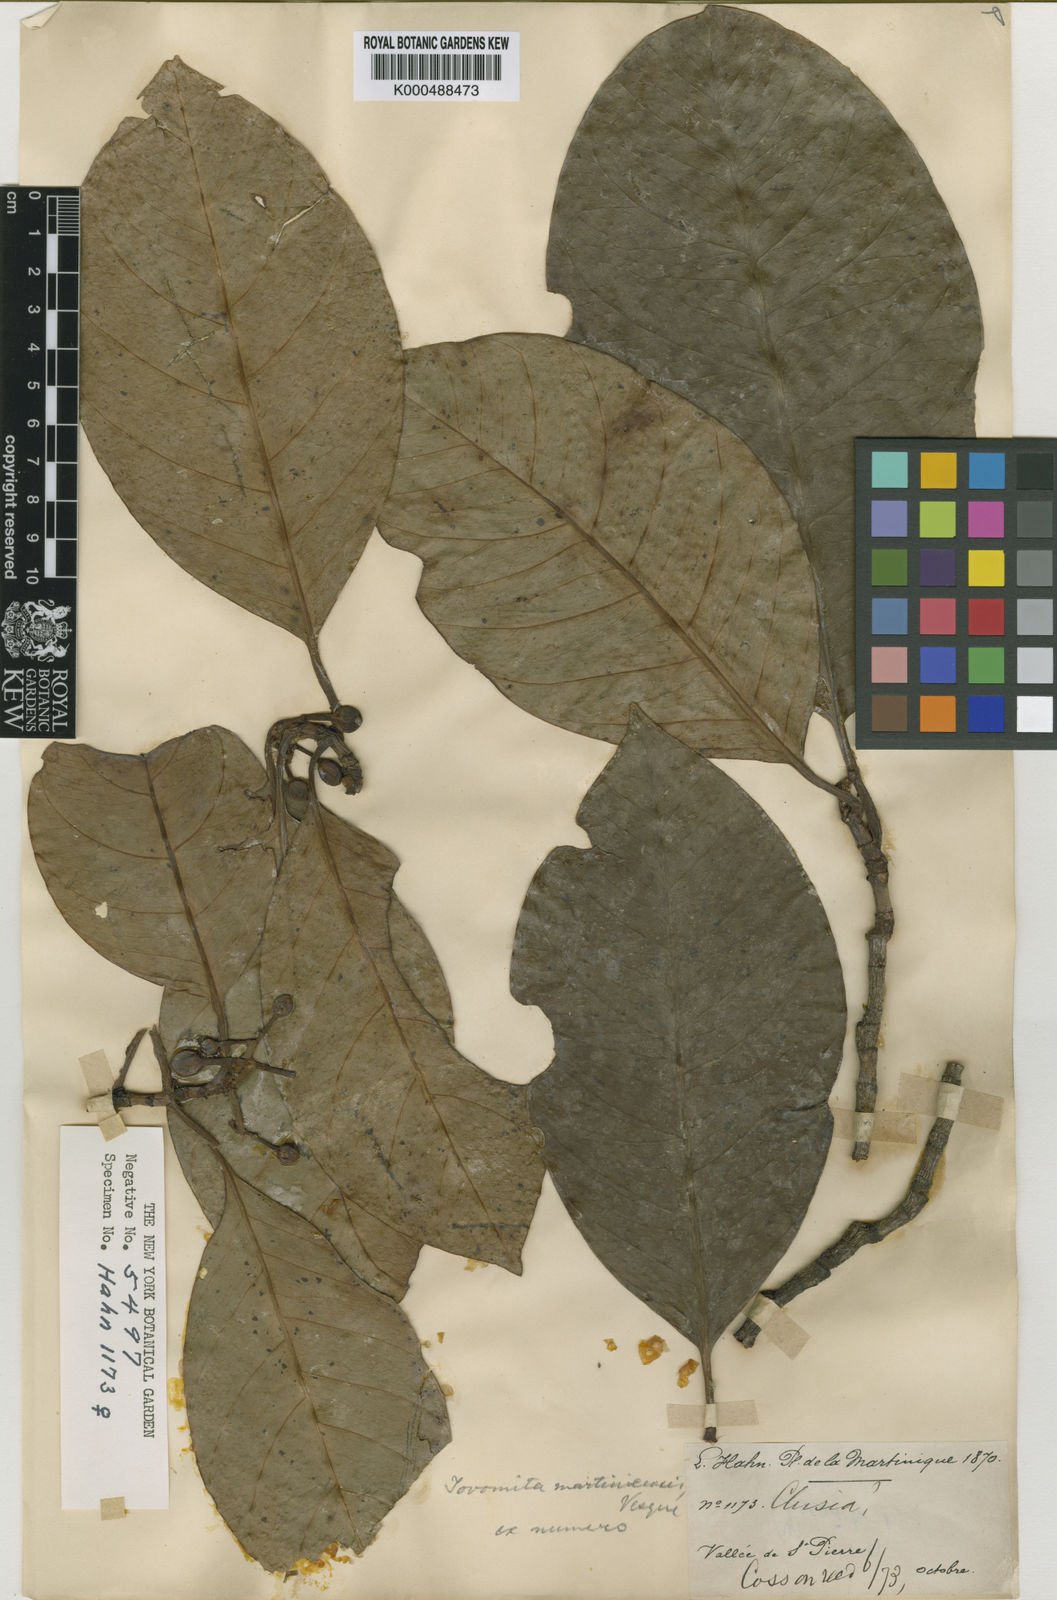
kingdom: Plantae
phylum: Tracheophyta
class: Magnoliopsida
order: Malpighiales
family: Clusiaceae
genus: Tovomita
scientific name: Tovomita plumieri
